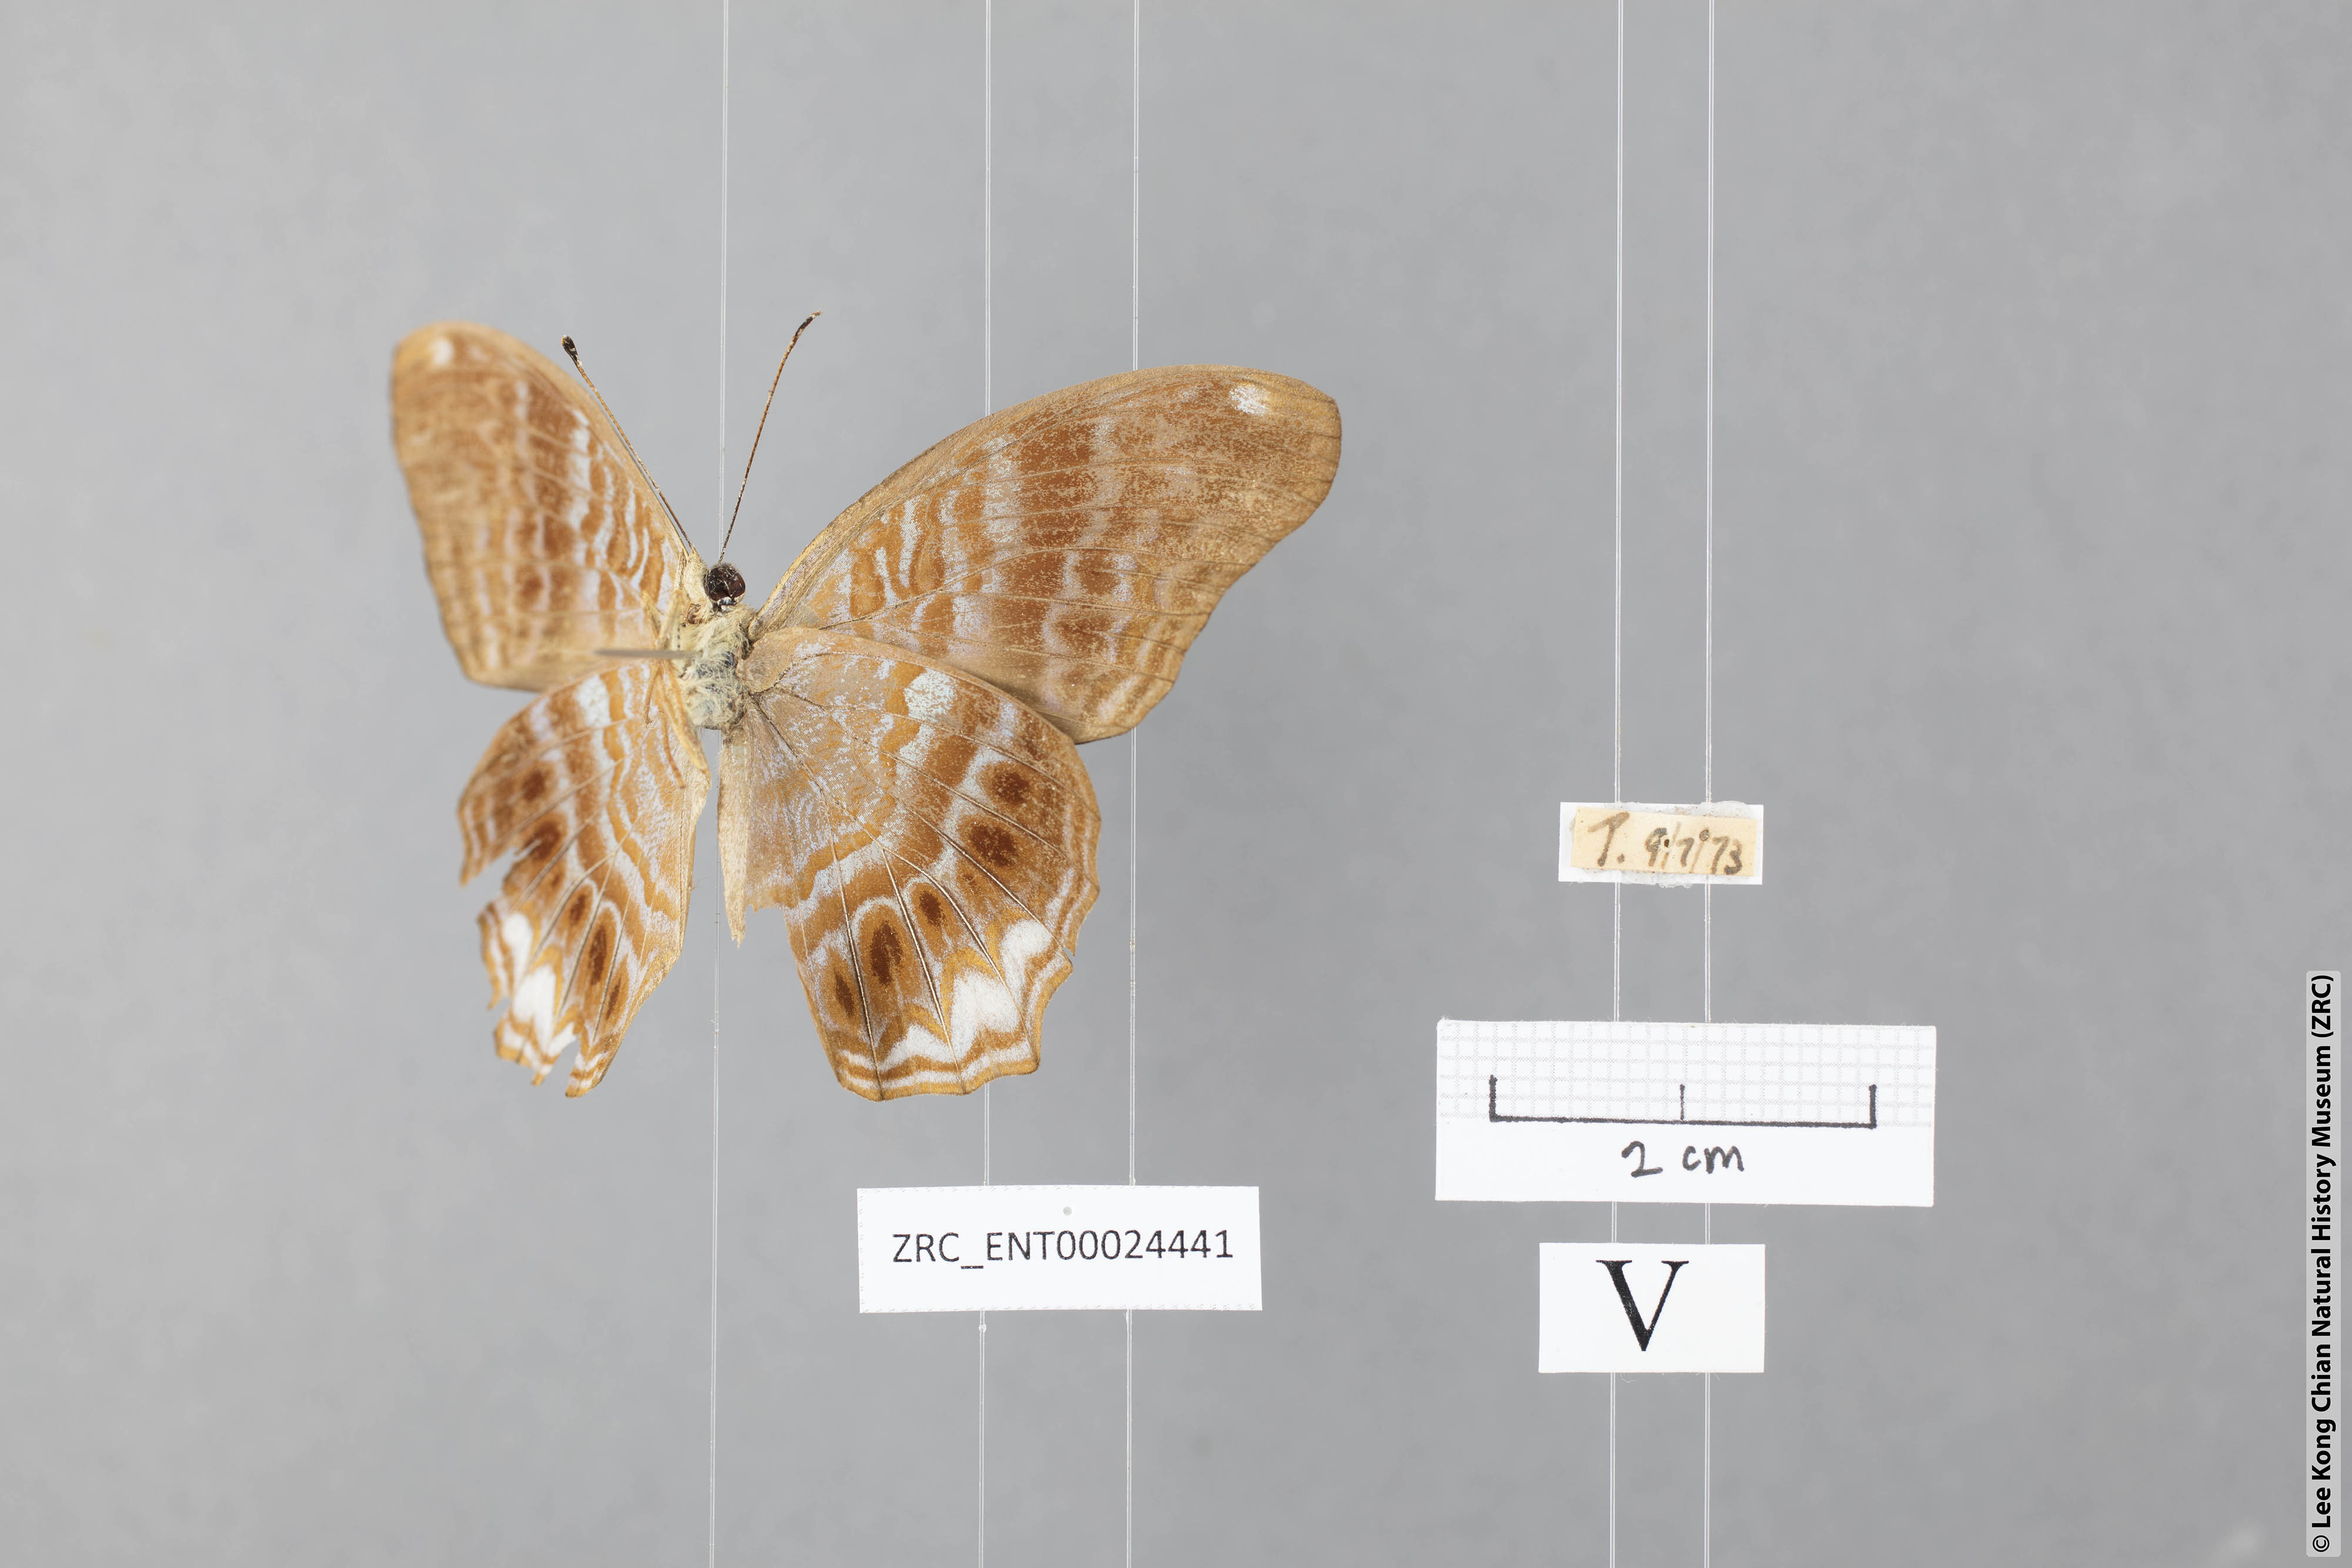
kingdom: Animalia
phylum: Arthropoda
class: Insecta
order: Lepidoptera
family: Nymphalidae
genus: Terinos
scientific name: Terinos terpander
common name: Royal assyrian
